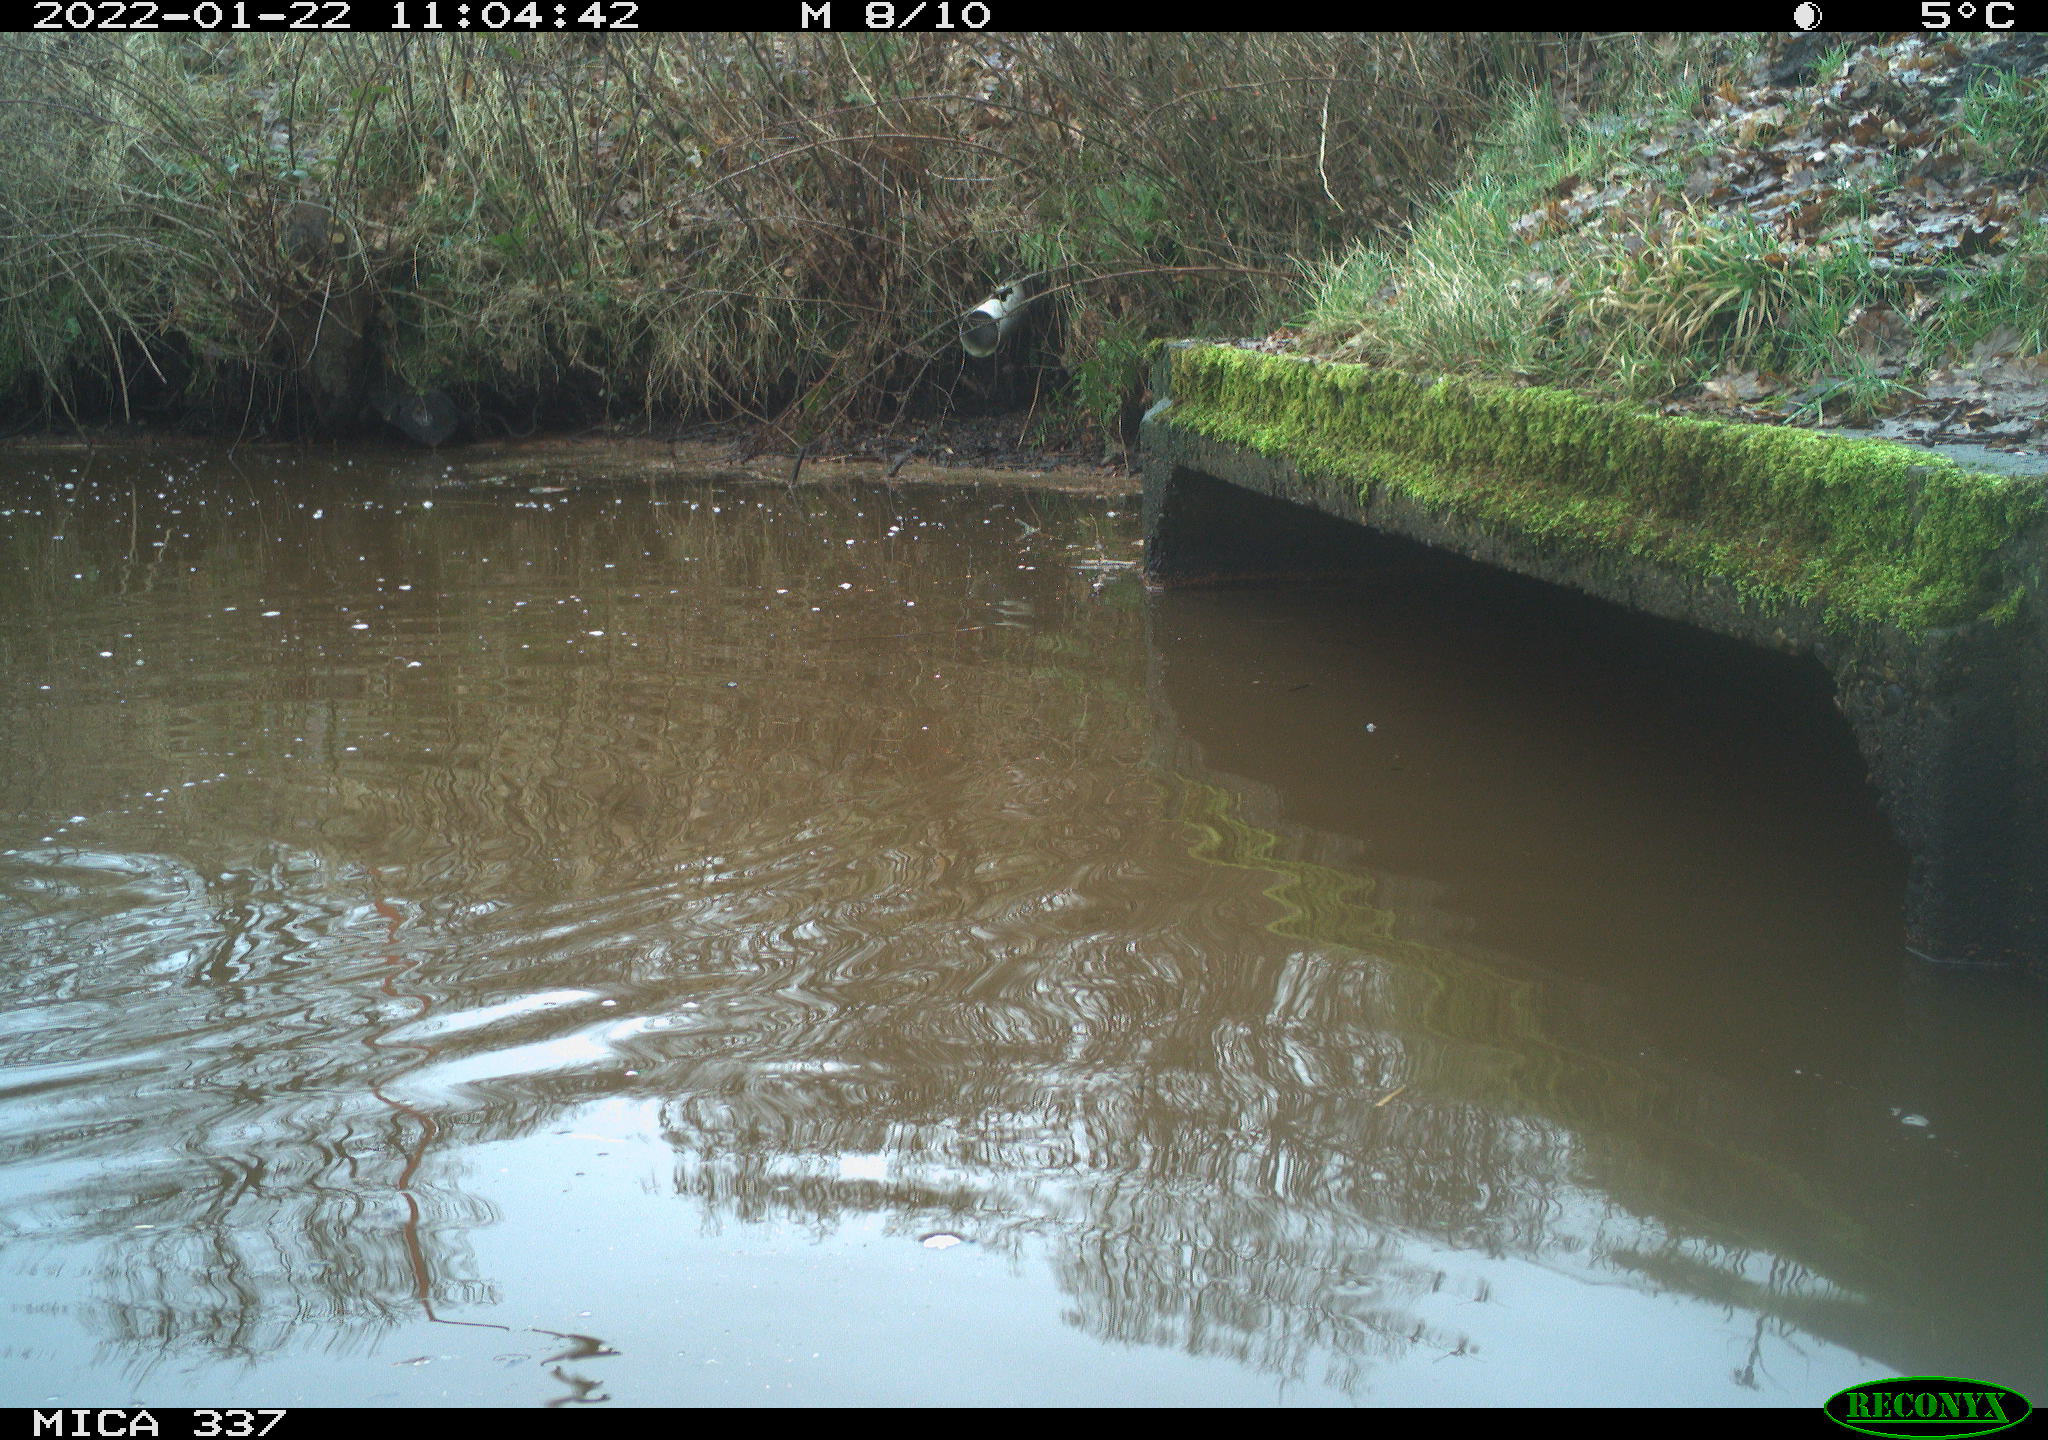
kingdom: Animalia
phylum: Chordata
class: Aves
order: Anseriformes
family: Anatidae
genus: Anas
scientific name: Anas platyrhynchos
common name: Mallard
